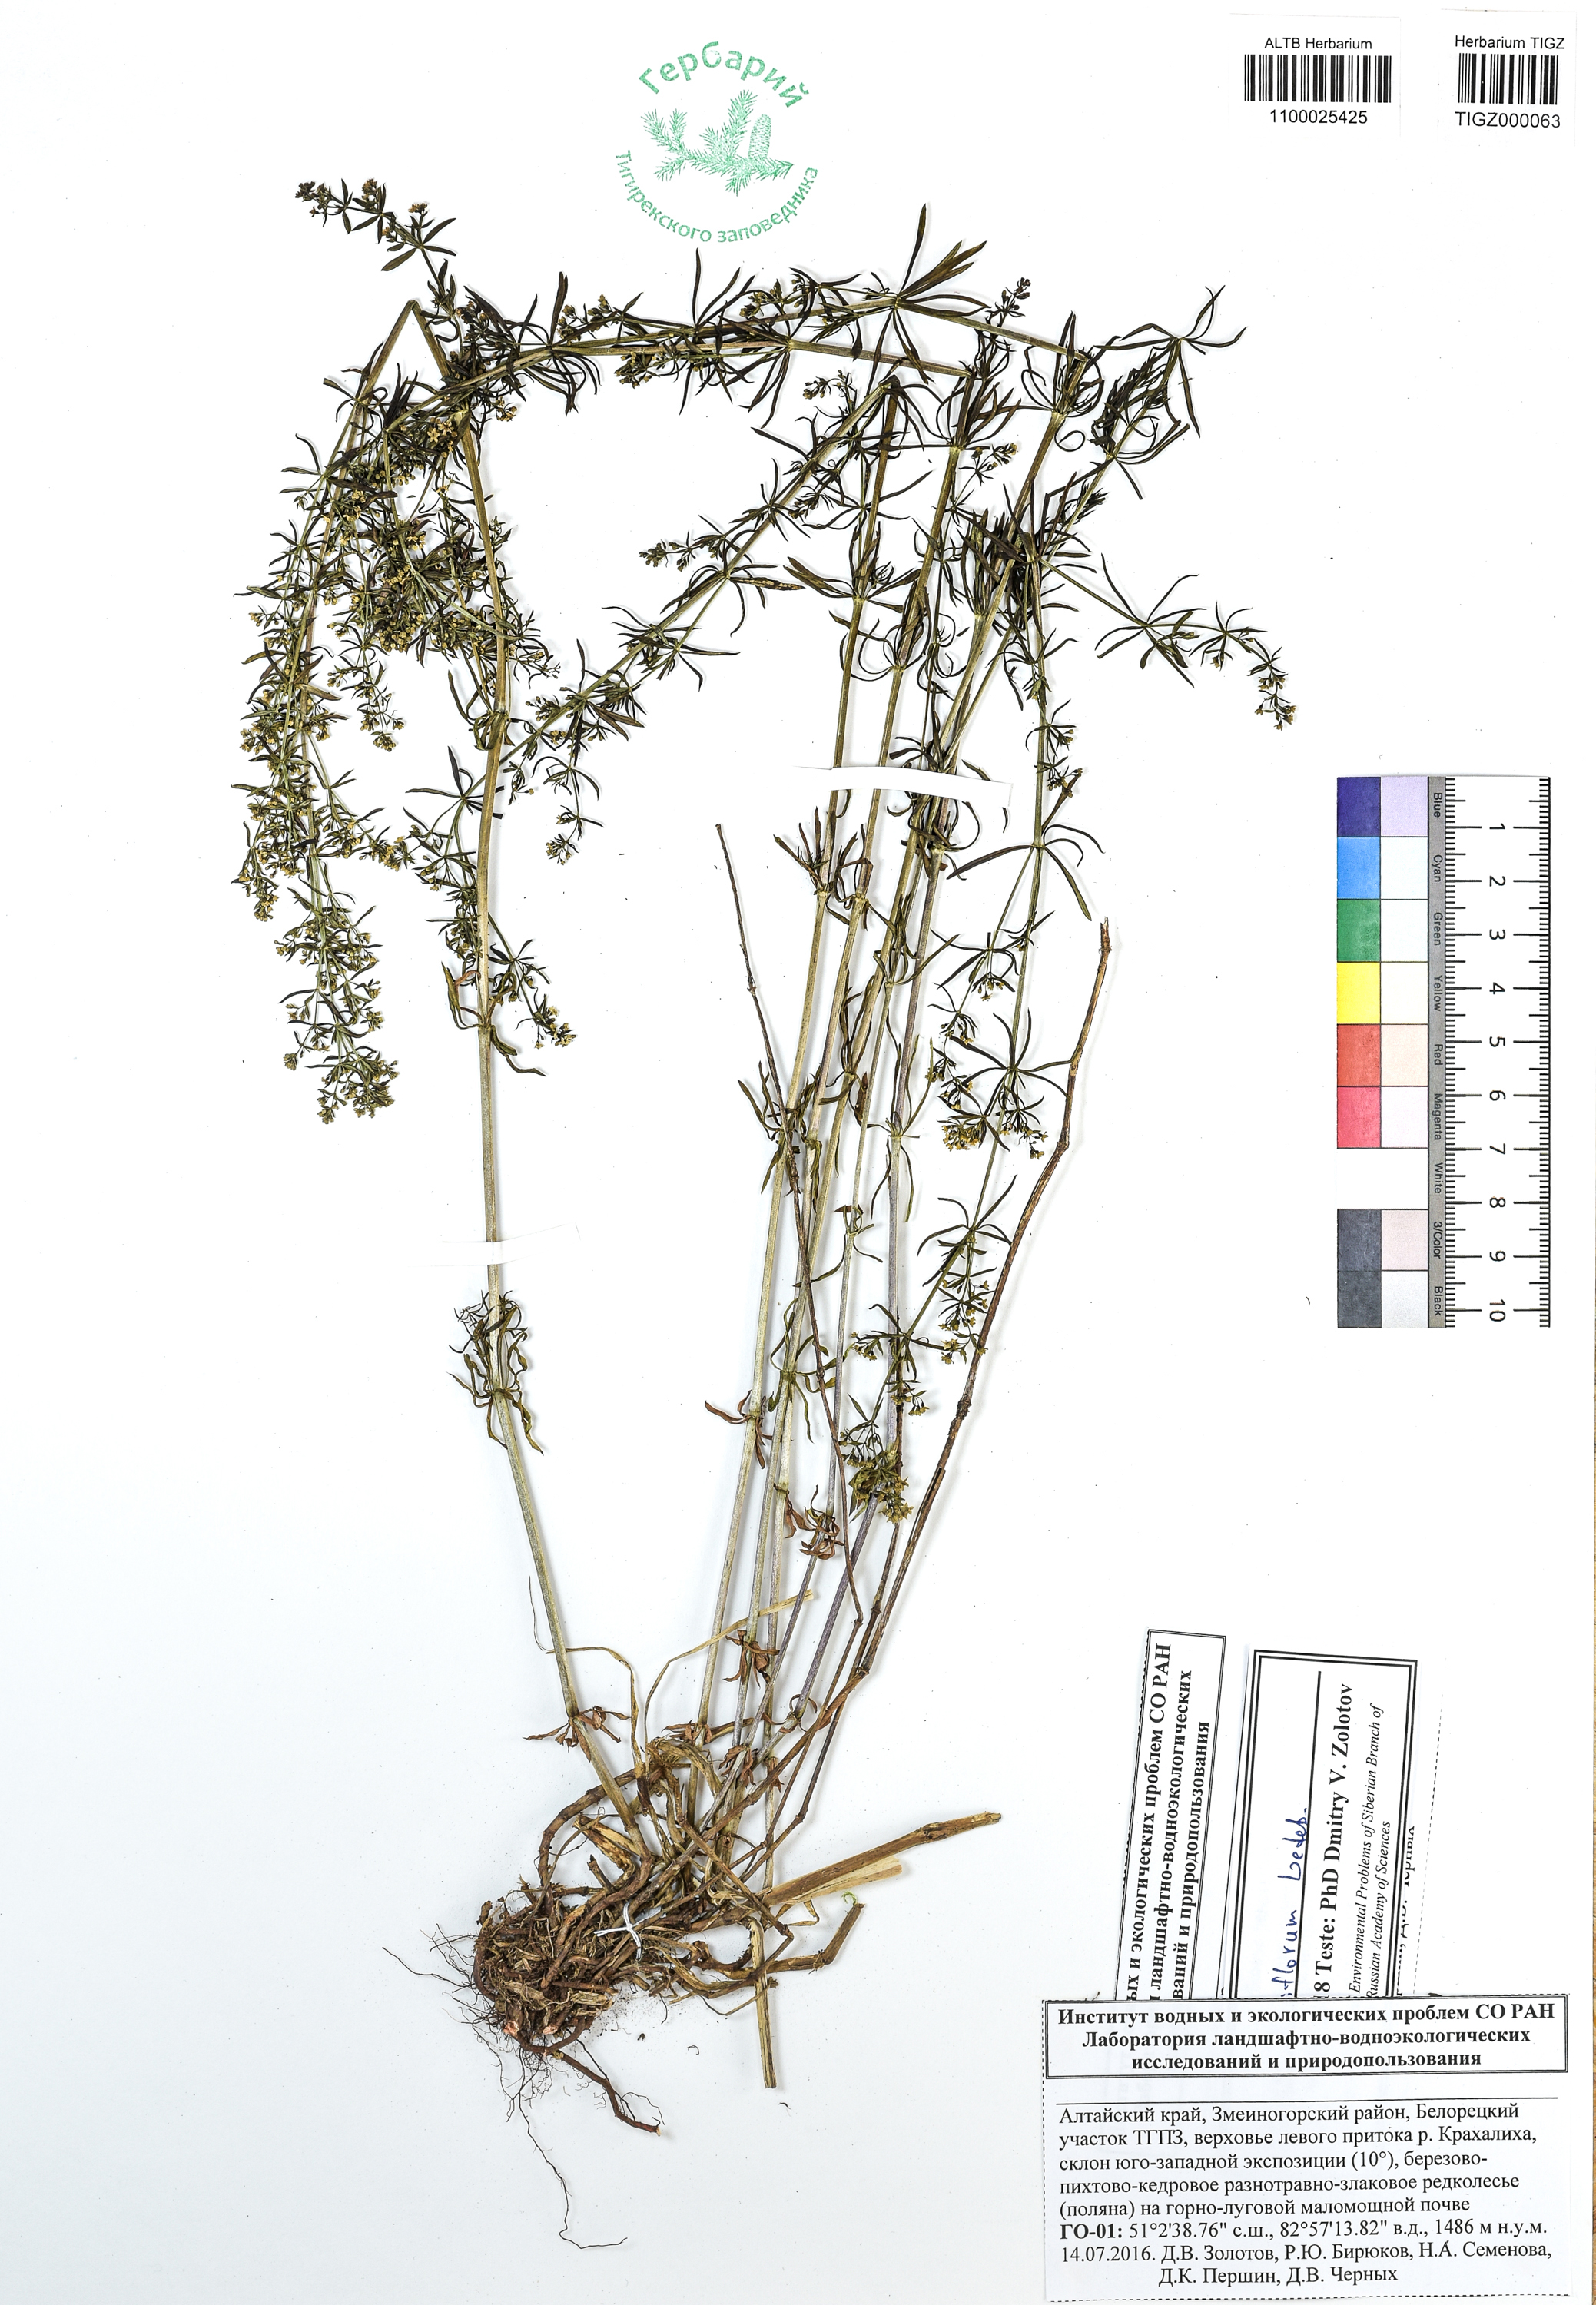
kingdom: Plantae
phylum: Tracheophyta
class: Magnoliopsida
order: Gentianales
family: Rubiaceae
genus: Galium
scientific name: Galium densiflorum
